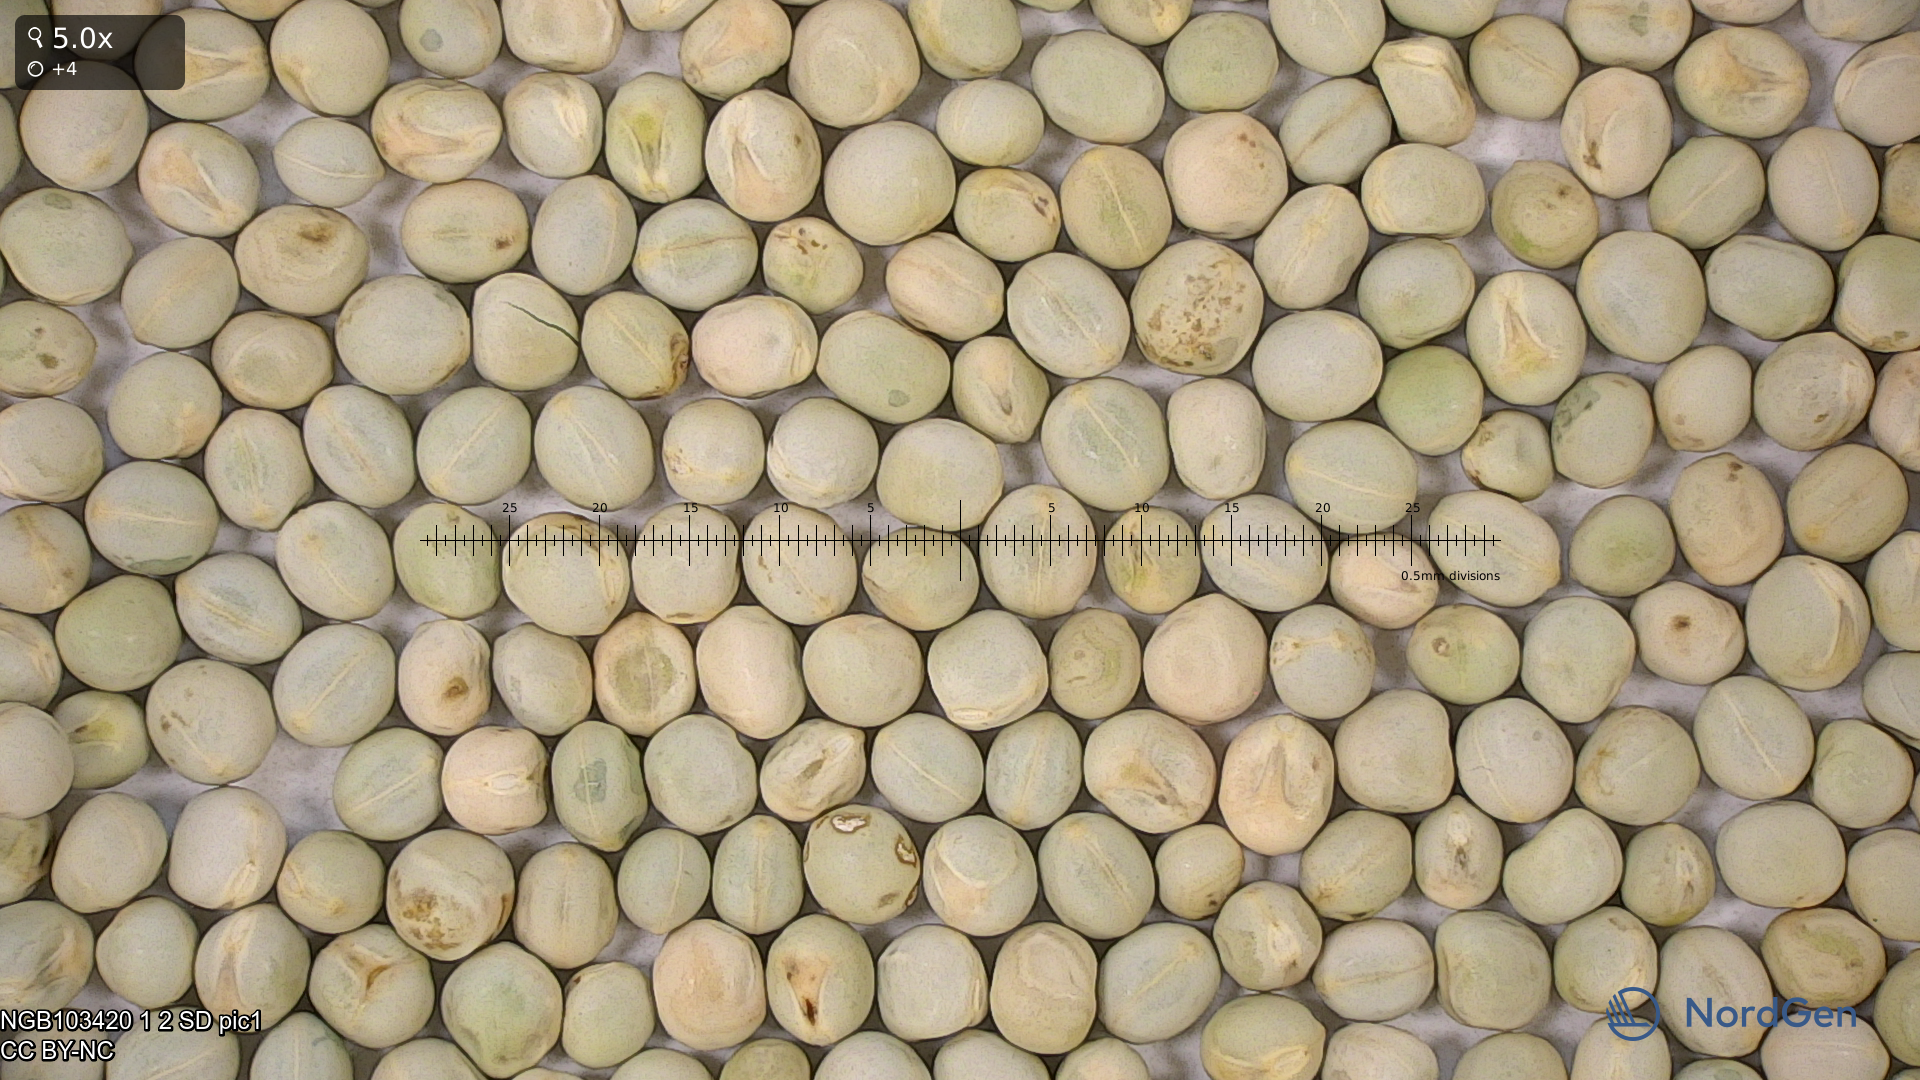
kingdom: Plantae
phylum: Tracheophyta
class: Magnoliopsida
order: Fabales
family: Fabaceae
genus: Lathyrus
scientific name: Lathyrus oleraceus
